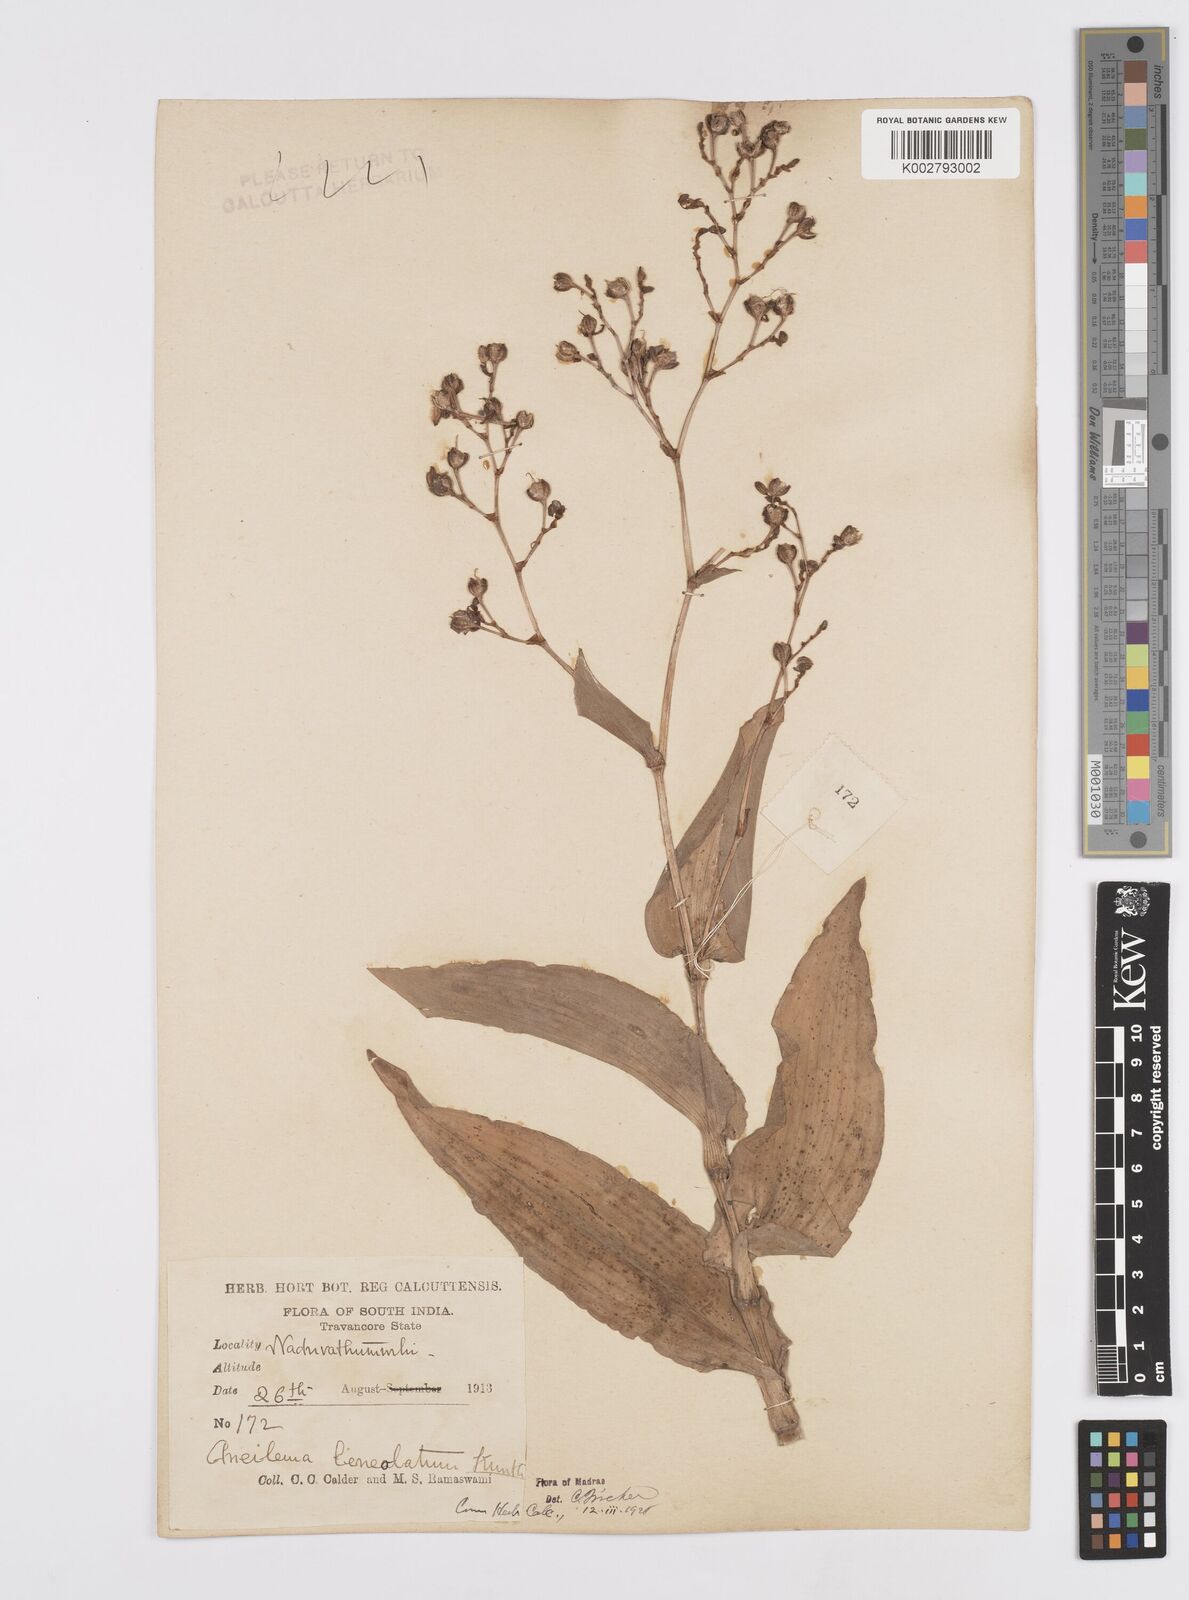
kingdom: Plantae
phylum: Tracheophyta
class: Liliopsida
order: Commelinales
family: Commelinaceae
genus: Murdannia
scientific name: Murdannia
